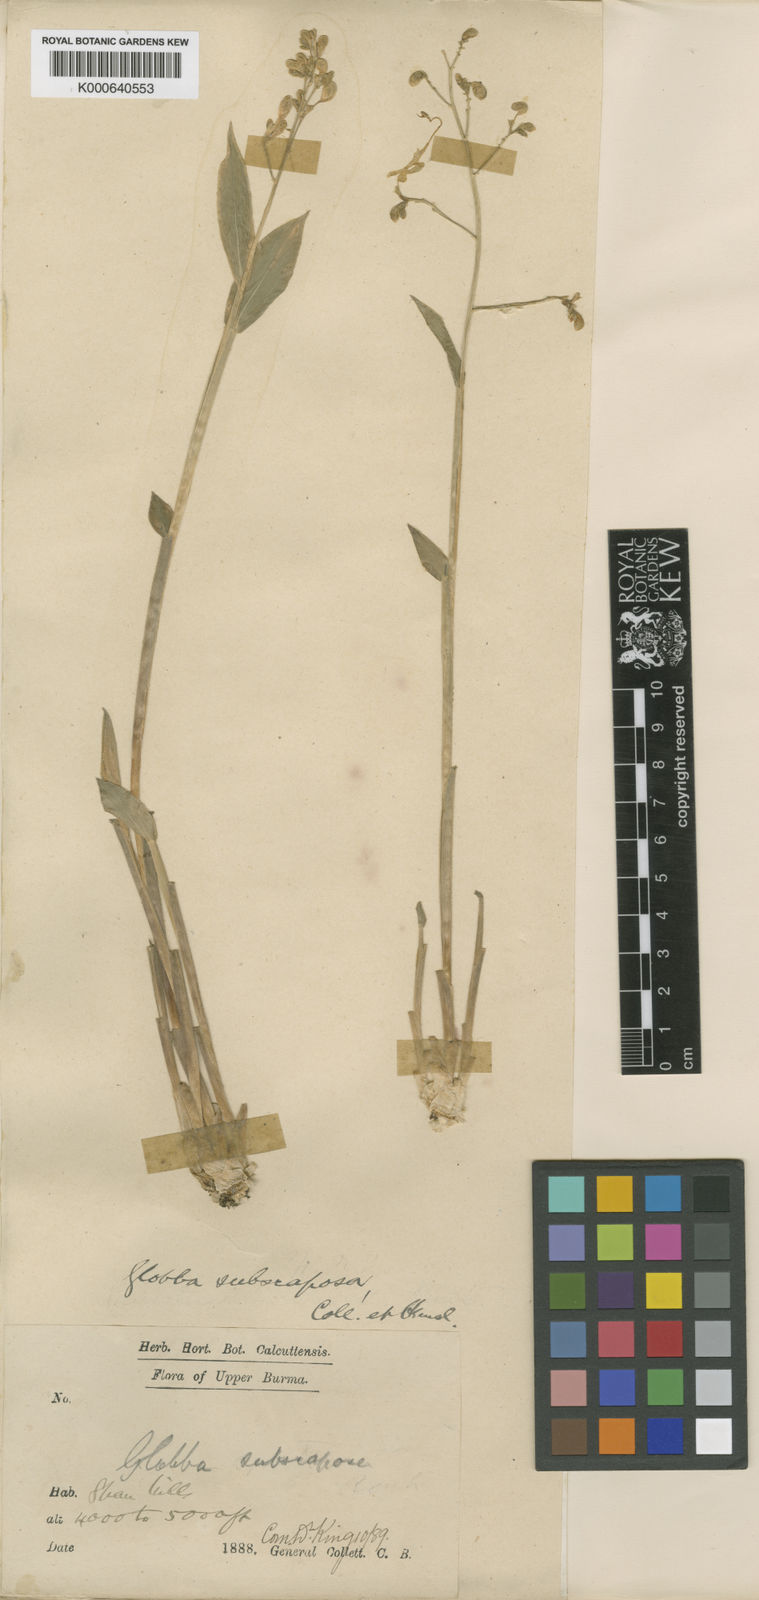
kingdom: Plantae
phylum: Tracheophyta
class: Liliopsida
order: Zingiberales
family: Zingiberaceae
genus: Globba
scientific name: Globba subscaposa
